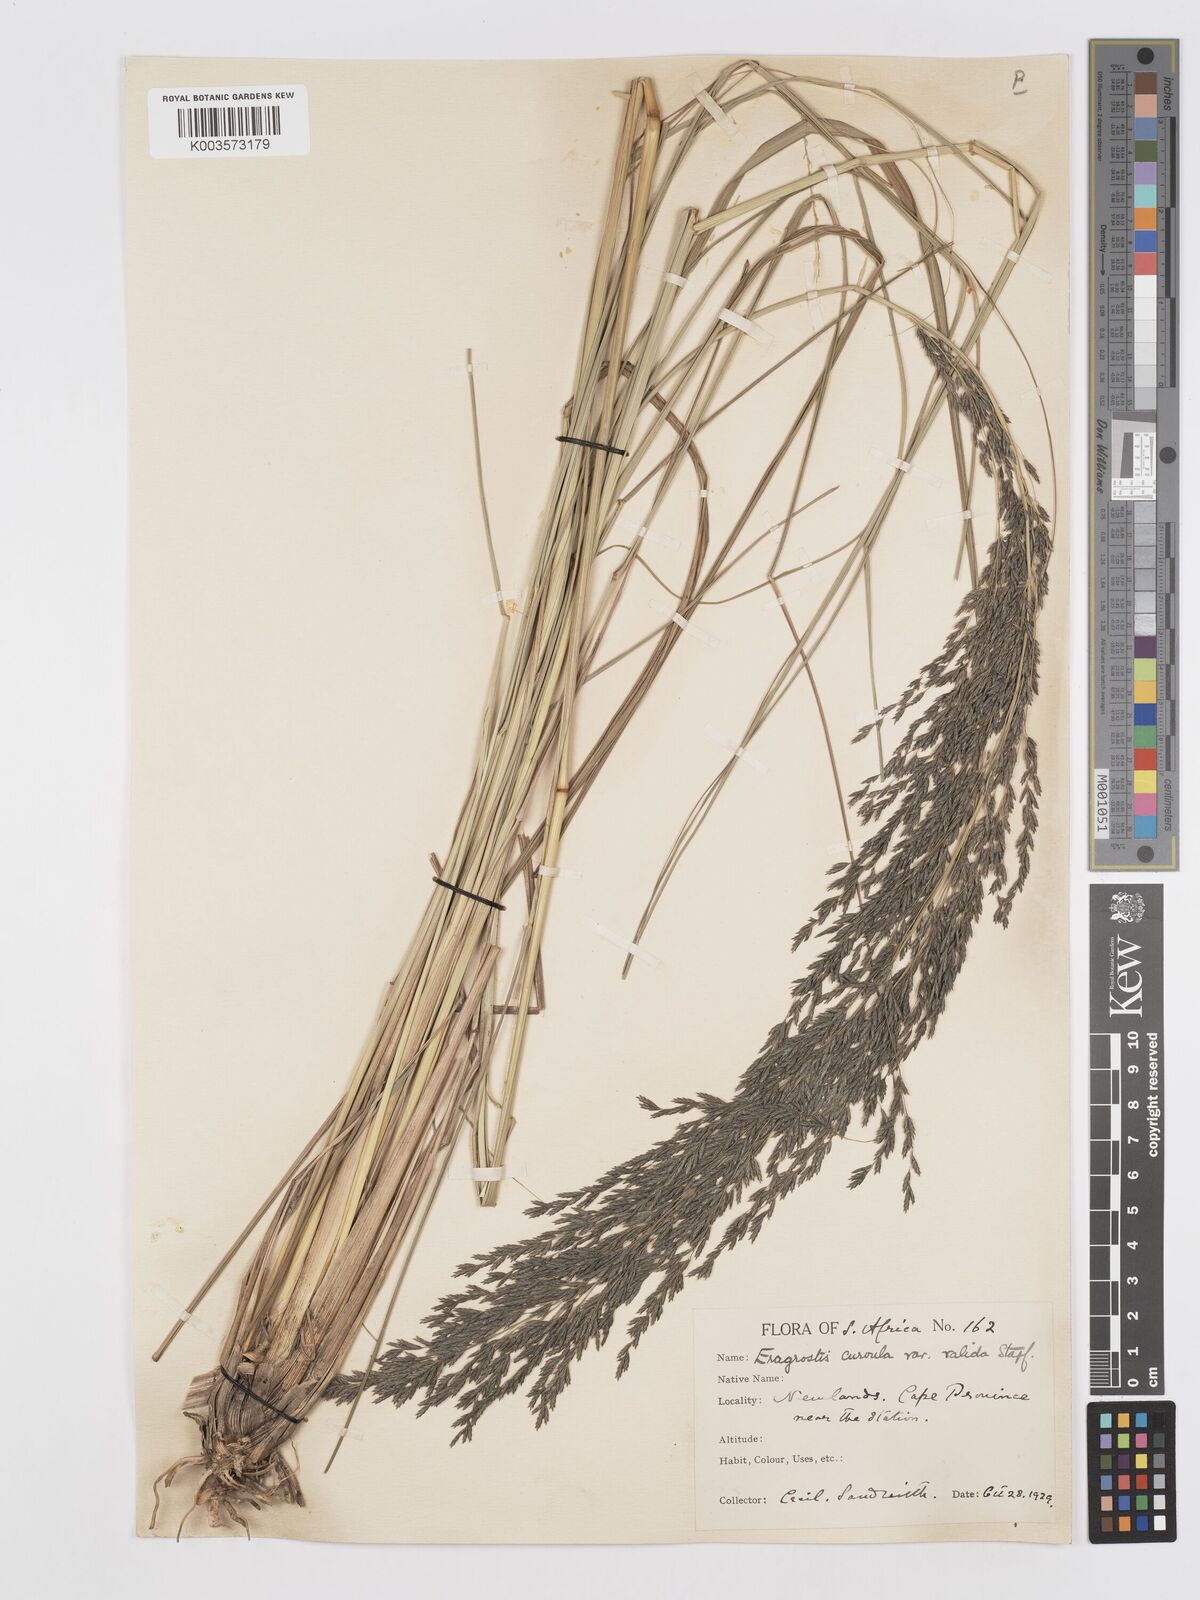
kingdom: Plantae
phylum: Tracheophyta
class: Liliopsida
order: Poales
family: Poaceae
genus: Eragrostis
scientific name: Eragrostis curvula
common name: African love-grass
